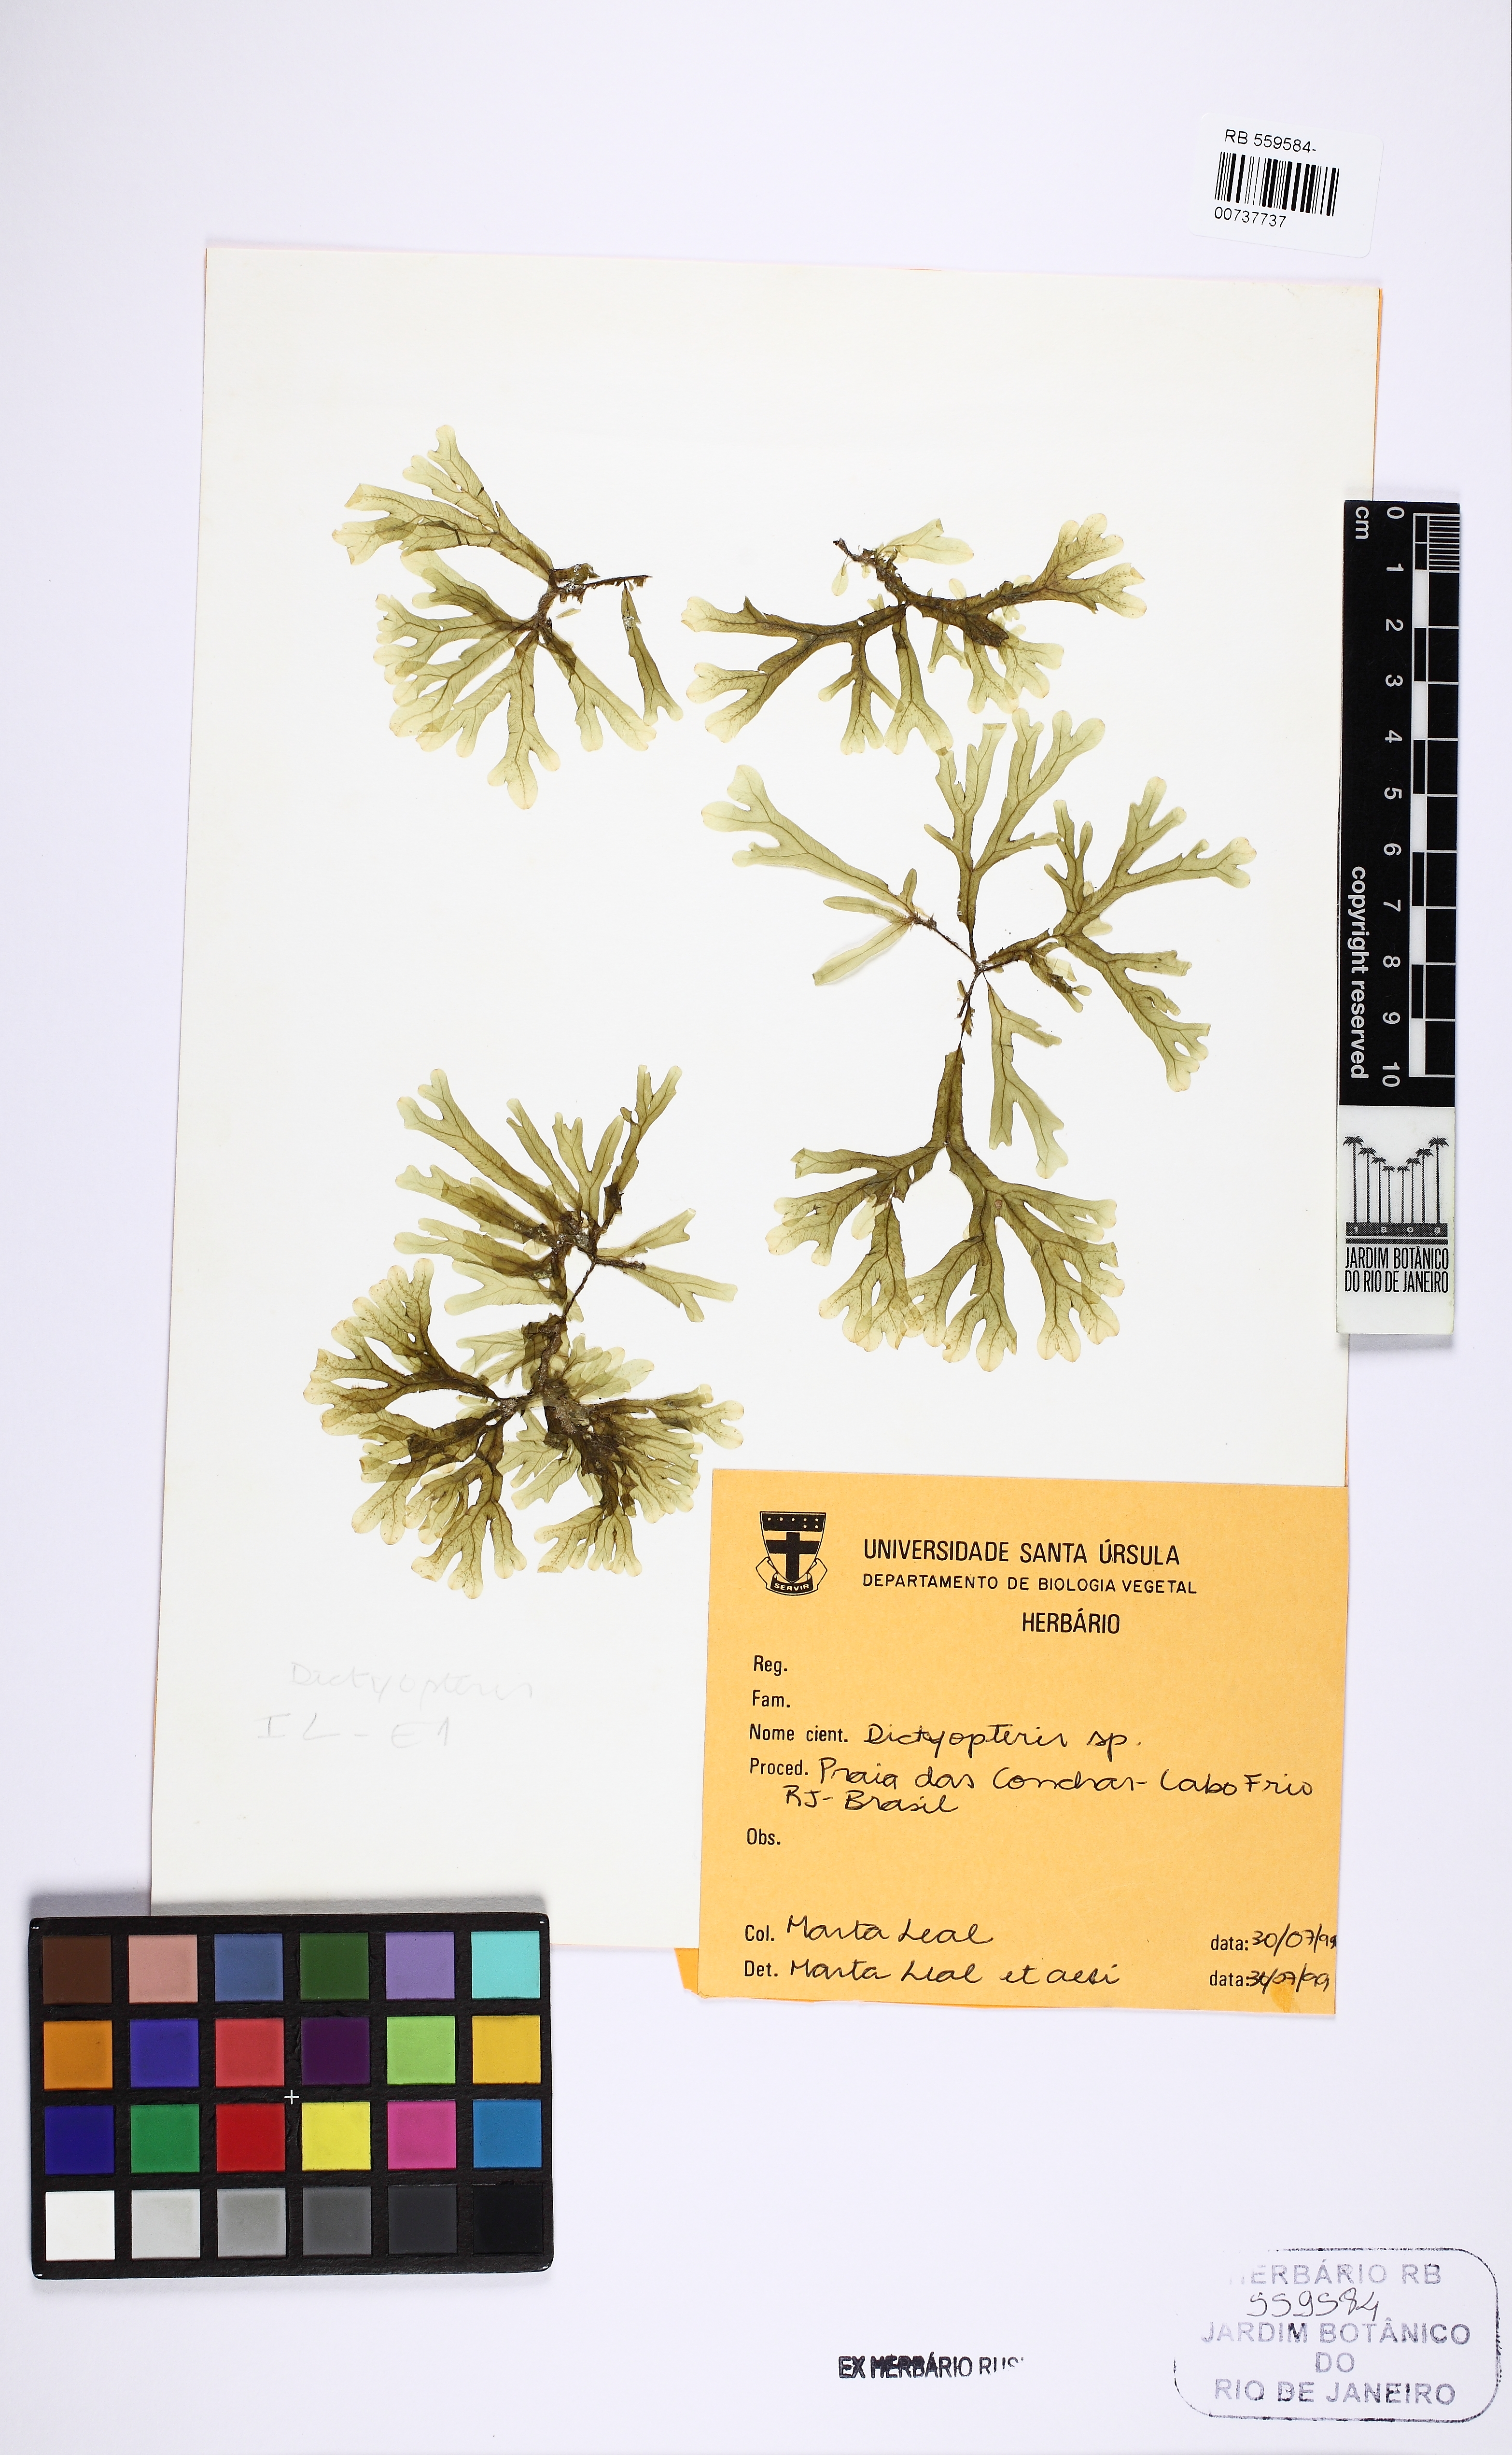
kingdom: Chromista
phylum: Ochrophyta
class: Phaeophyceae
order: Dictyotales
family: Dictyotaceae
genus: Dictyopteris
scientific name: Dictyopteris
